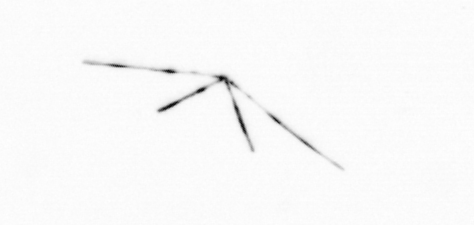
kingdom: Chromista
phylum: Ochrophyta
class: Bacillariophyceae
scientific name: Bacillariophyceae
